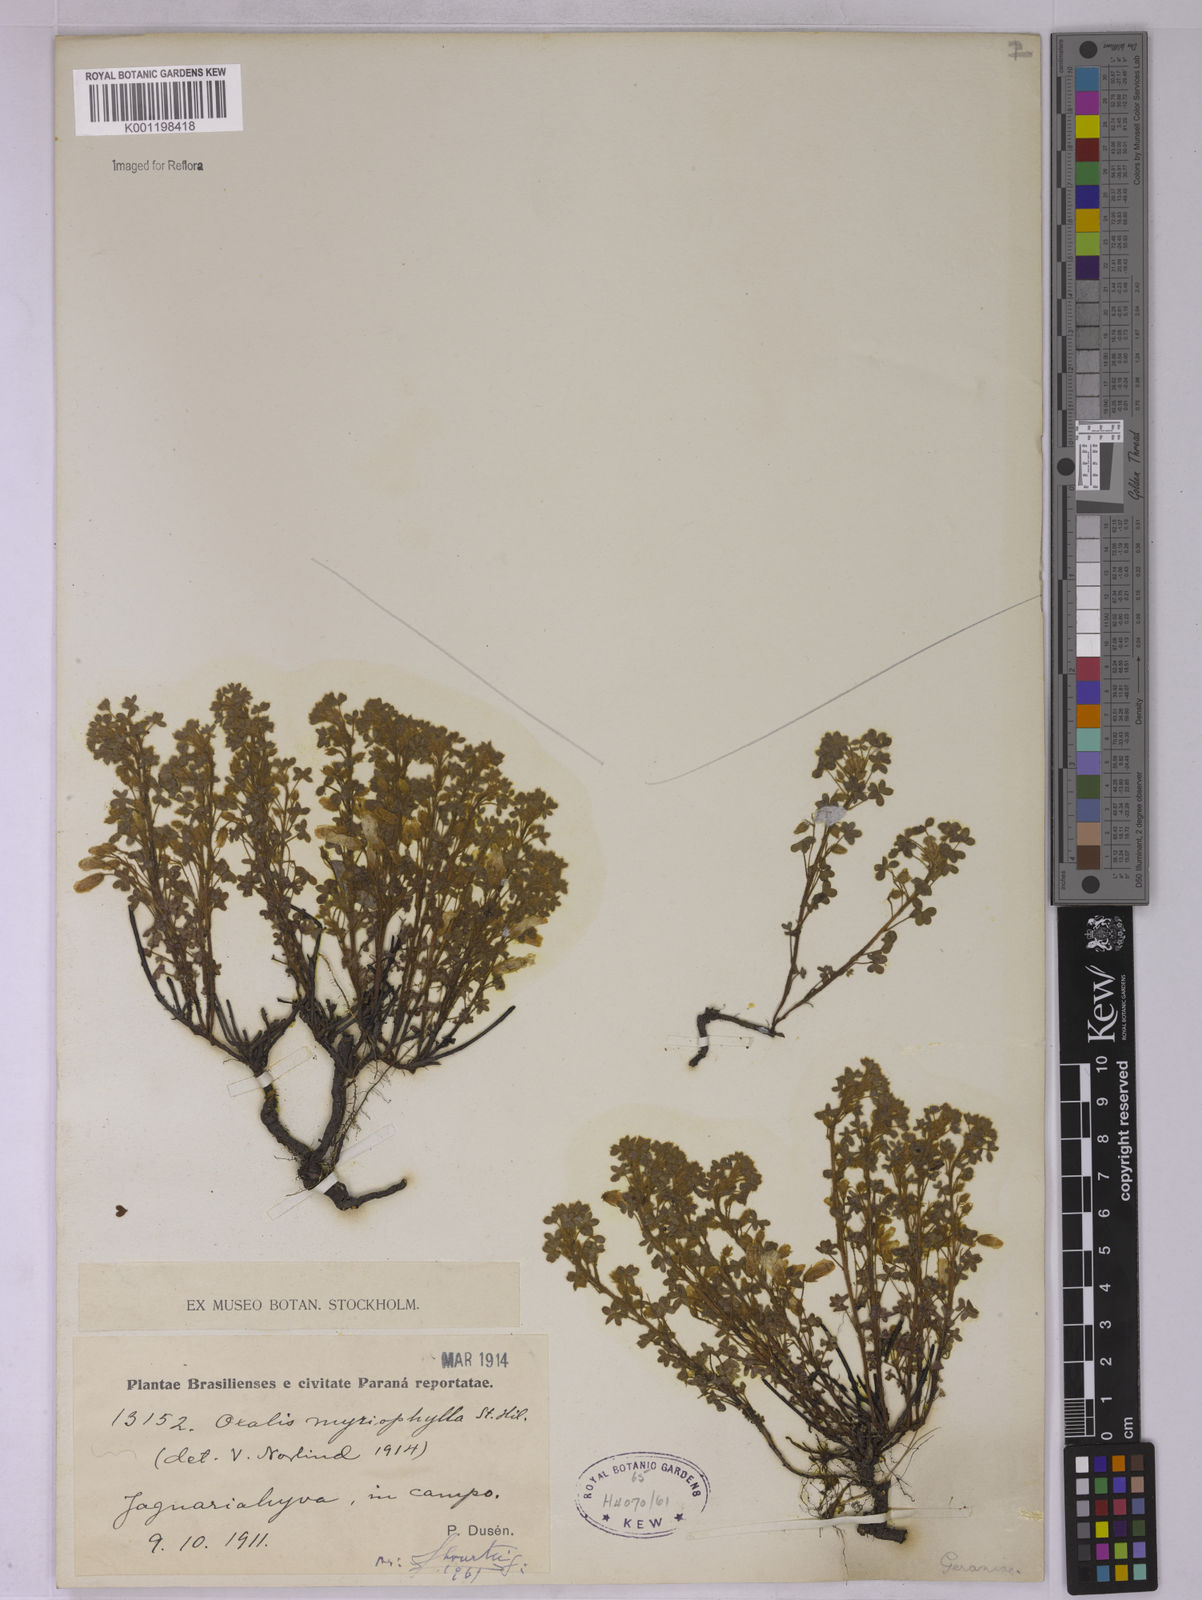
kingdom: Plantae
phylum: Tracheophyta
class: Magnoliopsida
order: Oxalidales
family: Oxalidaceae
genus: Oxalis
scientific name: Oxalis myriophylla
